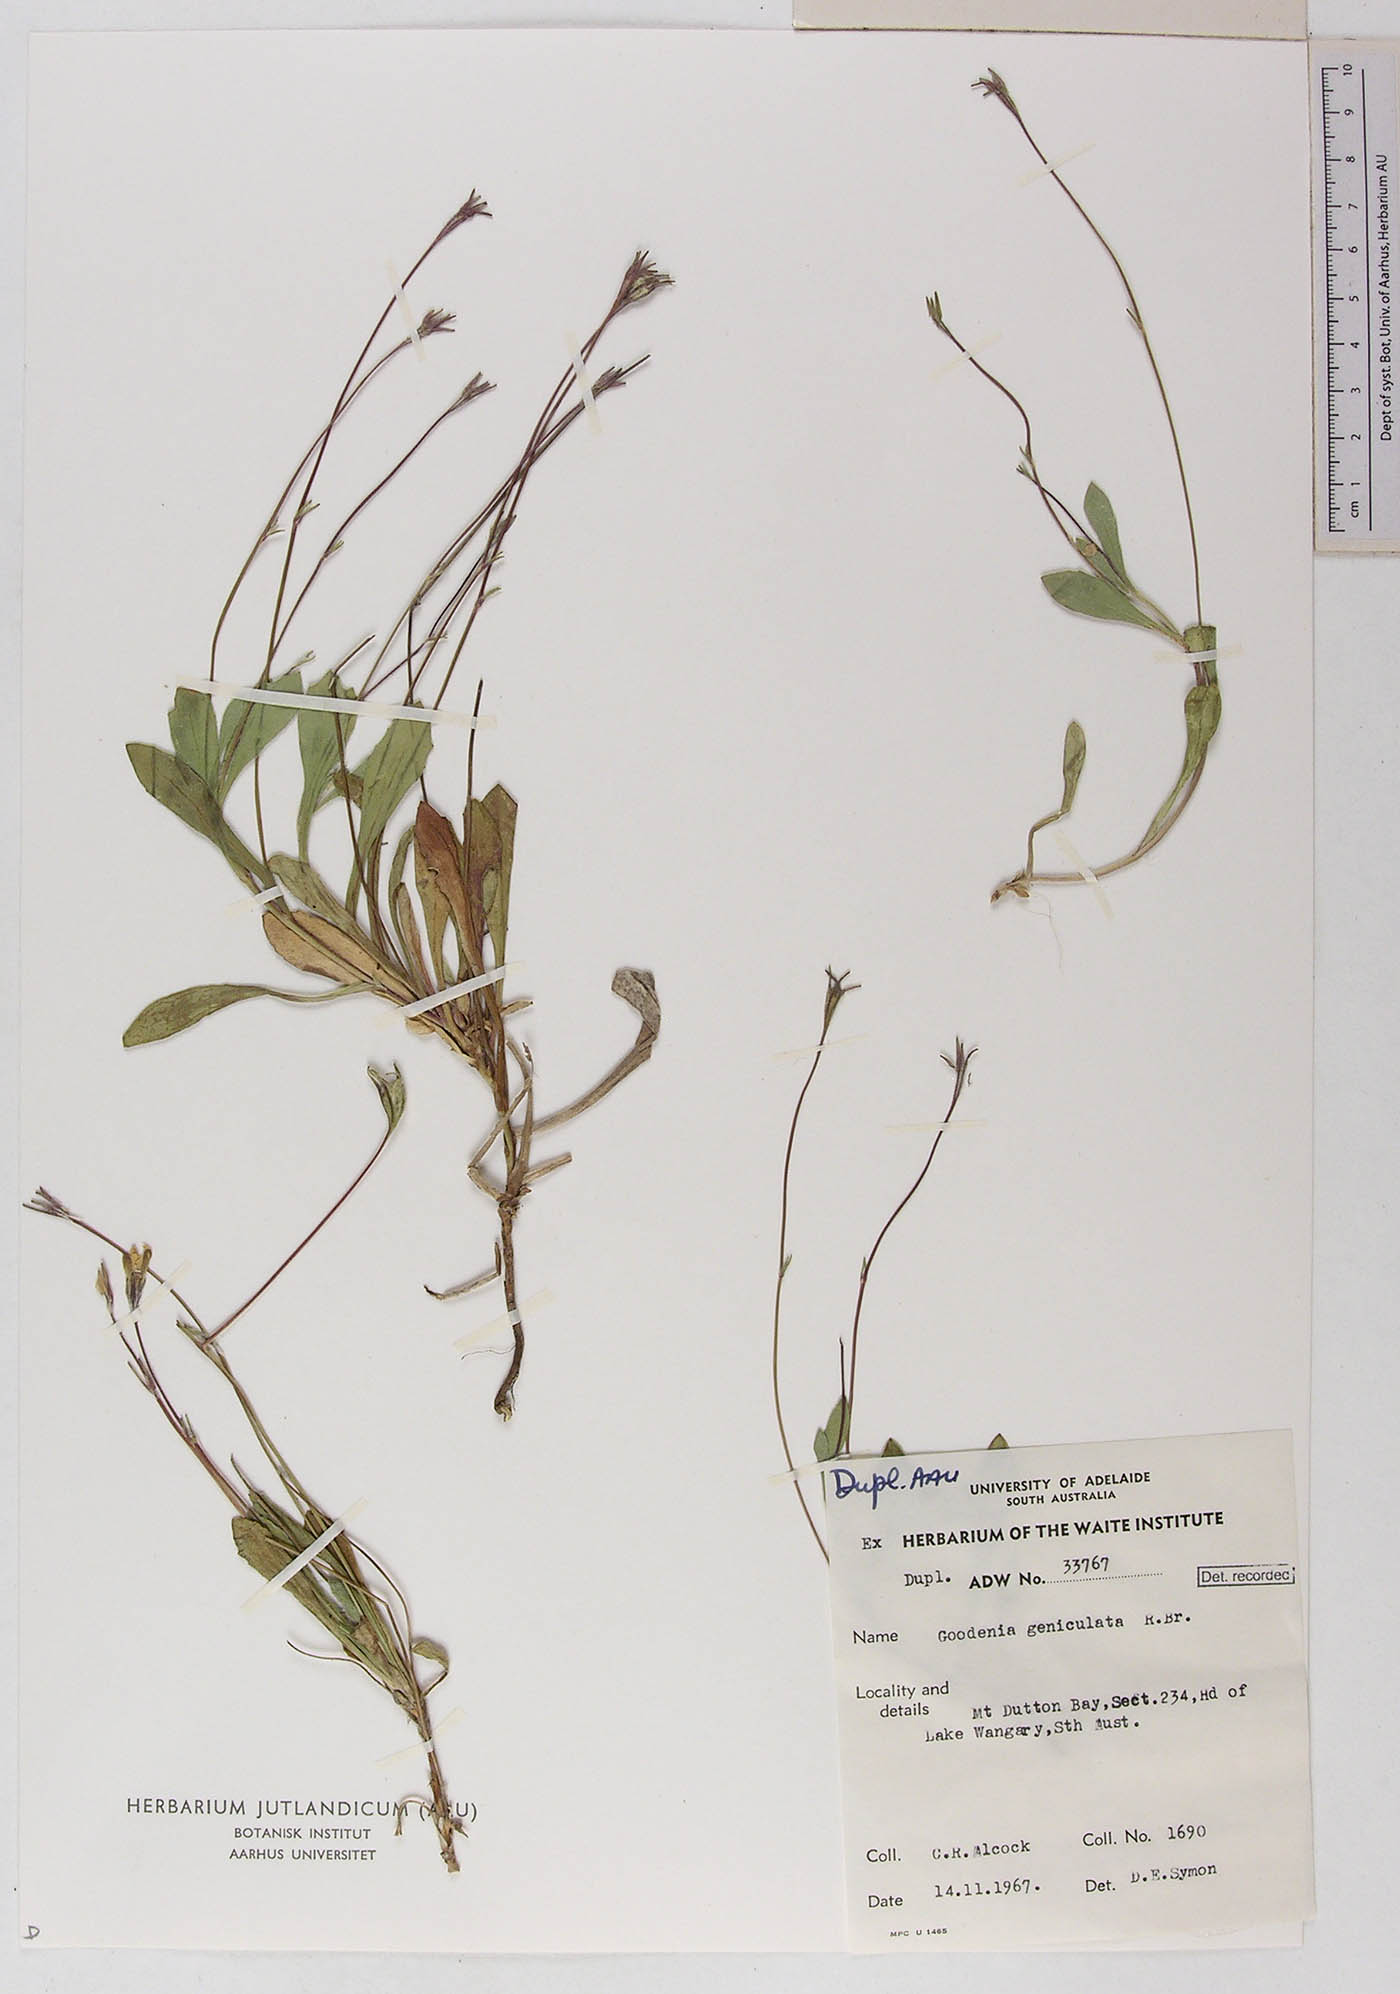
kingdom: Plantae
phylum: Tracheophyta
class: Magnoliopsida
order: Asterales
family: Goodeniaceae
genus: Goodenia
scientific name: Goodenia geniculata
